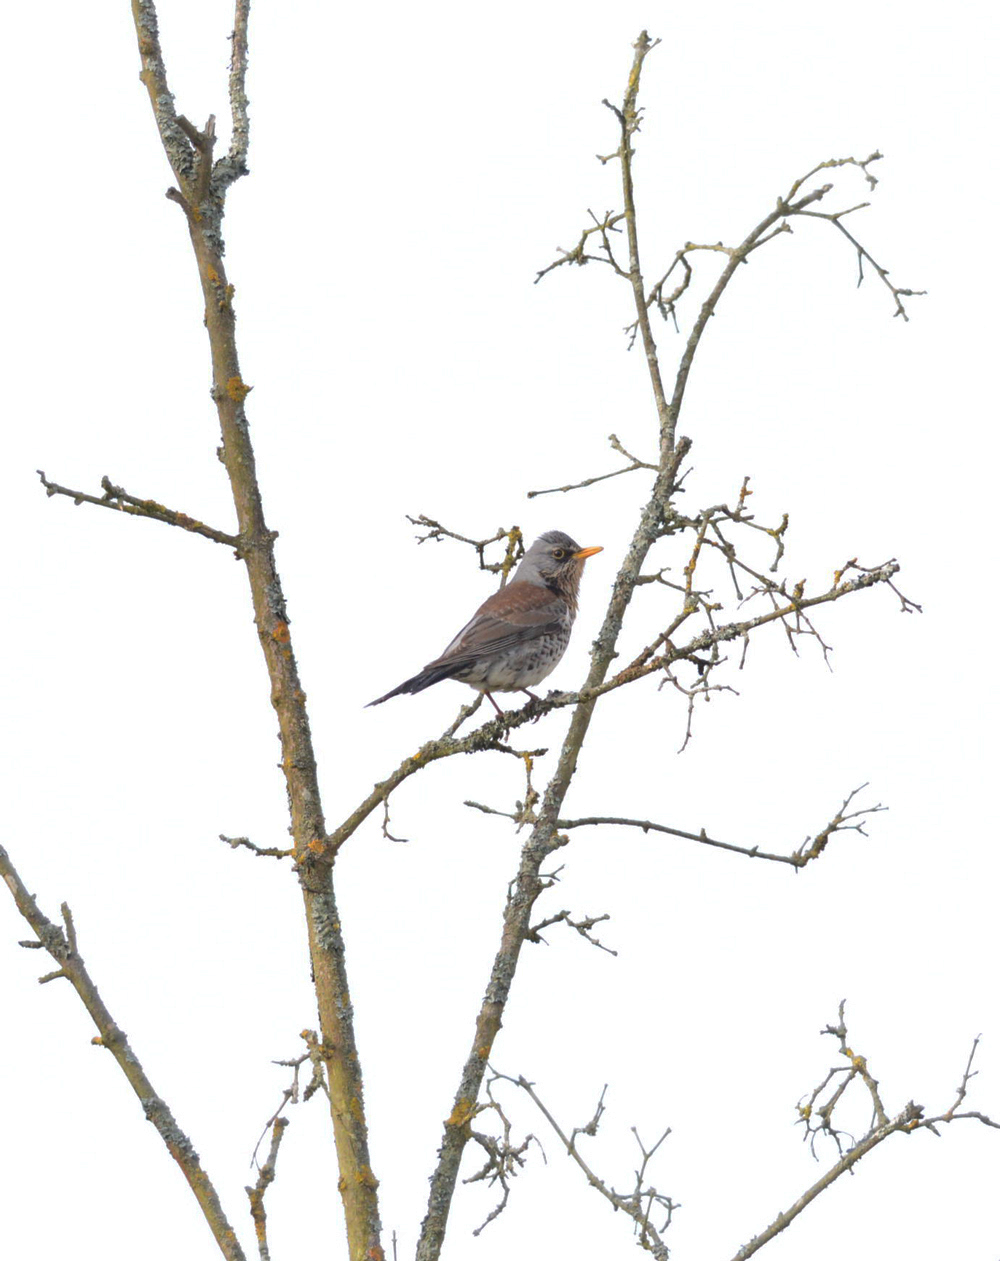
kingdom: Animalia
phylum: Chordata
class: Aves
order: Passeriformes
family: Turdidae
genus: Turdus
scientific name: Turdus pilaris
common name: Fieldfare
